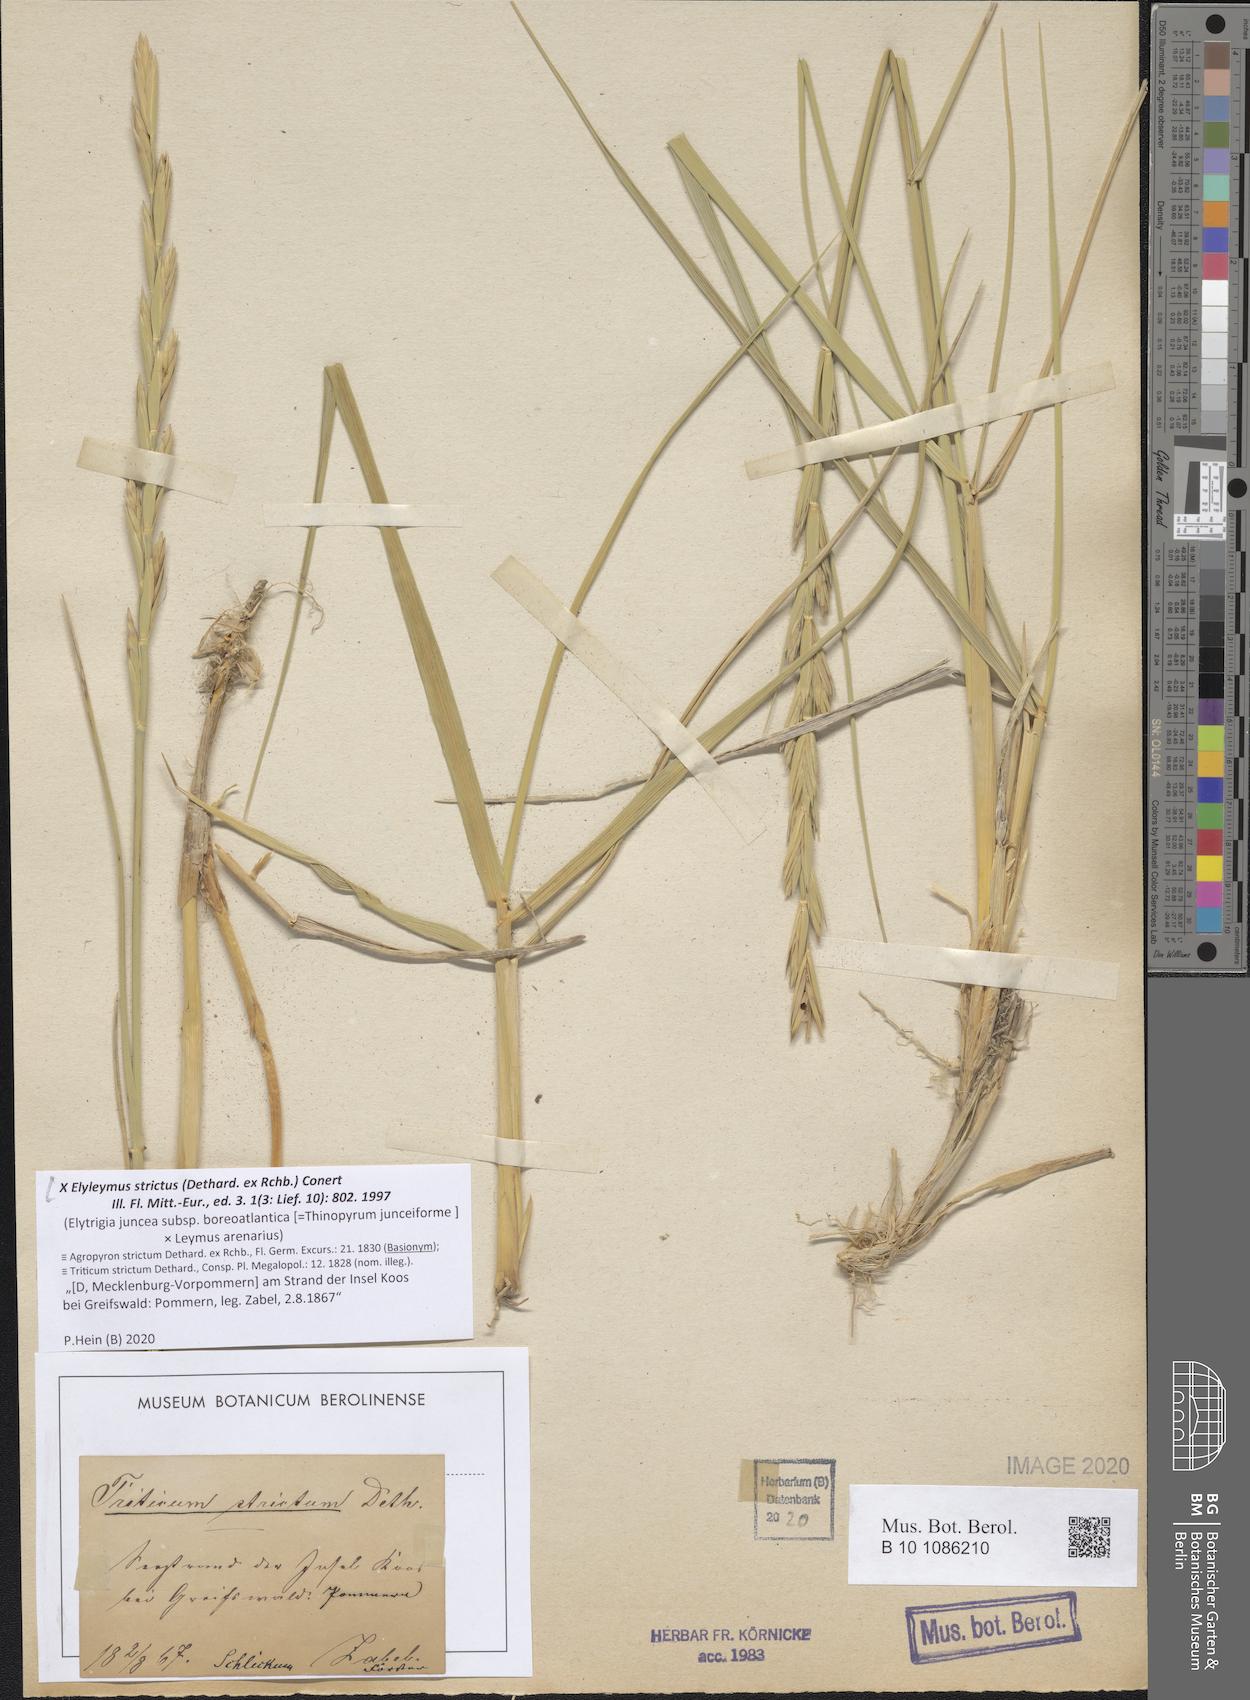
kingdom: Plantae
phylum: Tracheophyta
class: Liliopsida
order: Poales
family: Poaceae
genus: Elyleymus
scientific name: Elyleymus strictus
